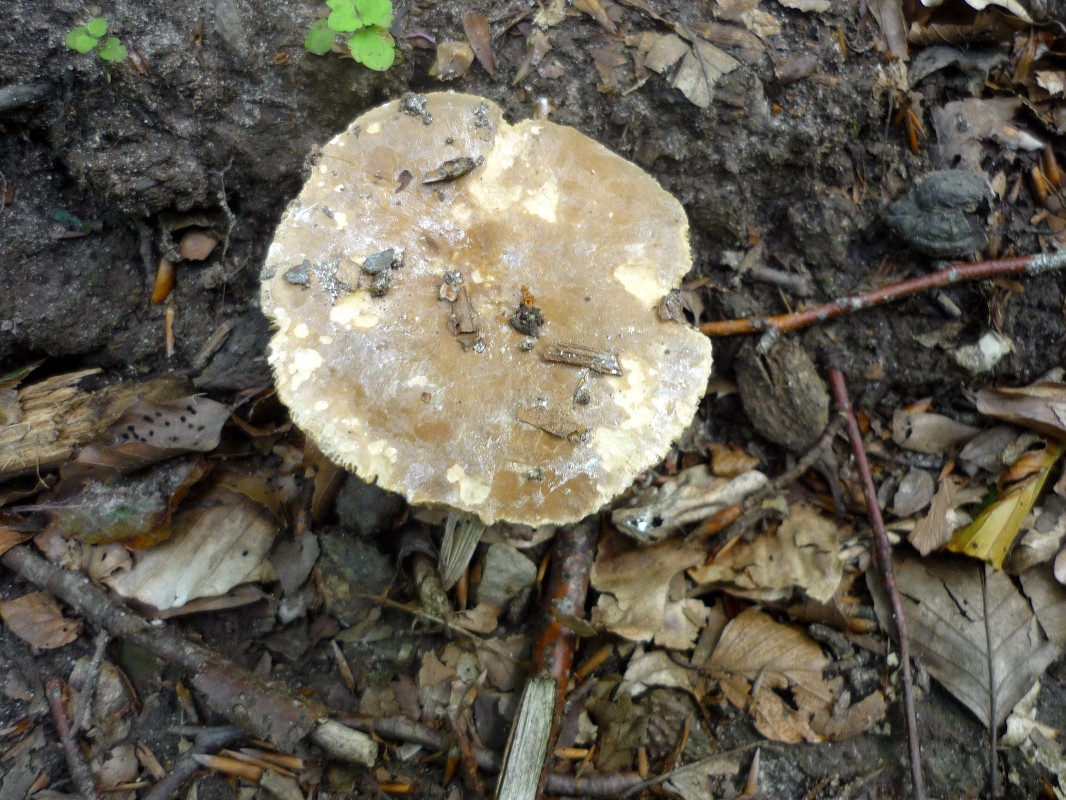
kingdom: Fungi
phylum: Basidiomycota
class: Agaricomycetes
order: Russulales
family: Russulaceae
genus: Lactarius
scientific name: Lactarius
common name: mælkehat
